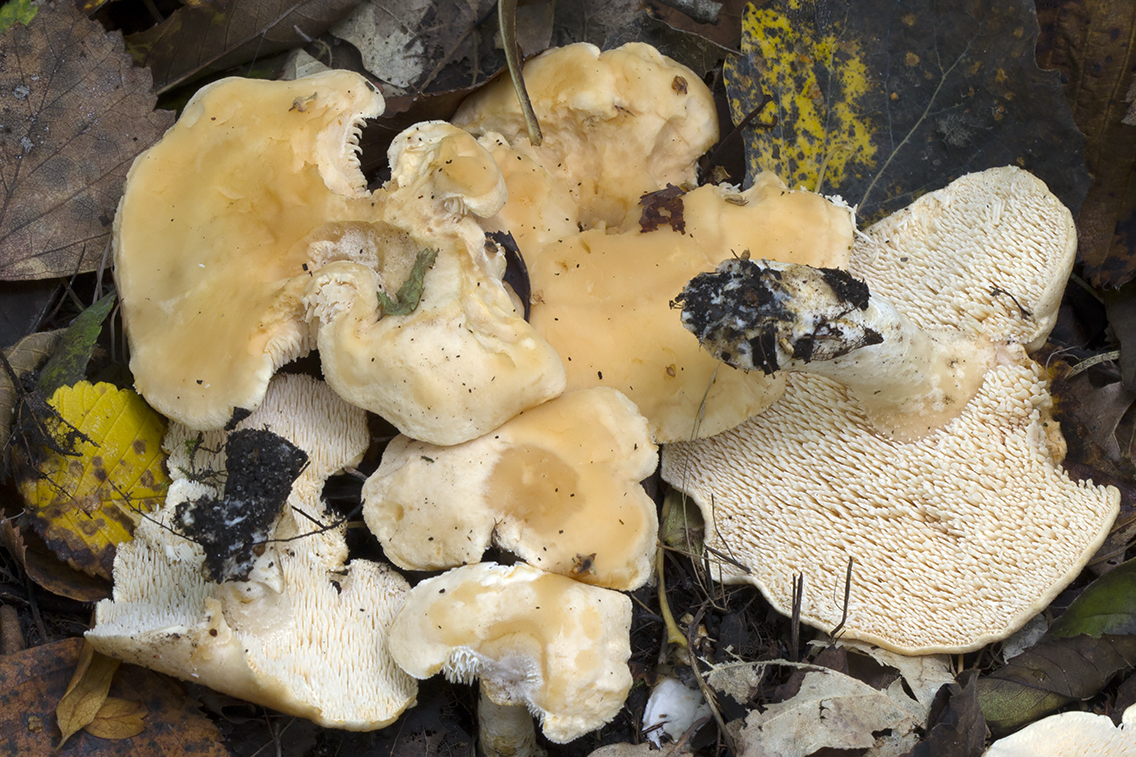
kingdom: Fungi
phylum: Basidiomycota
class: Agaricomycetes
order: Cantharellales
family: Hydnaceae
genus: Hydnum
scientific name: Hydnum magnorufescens
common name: brunende pigsvamp
